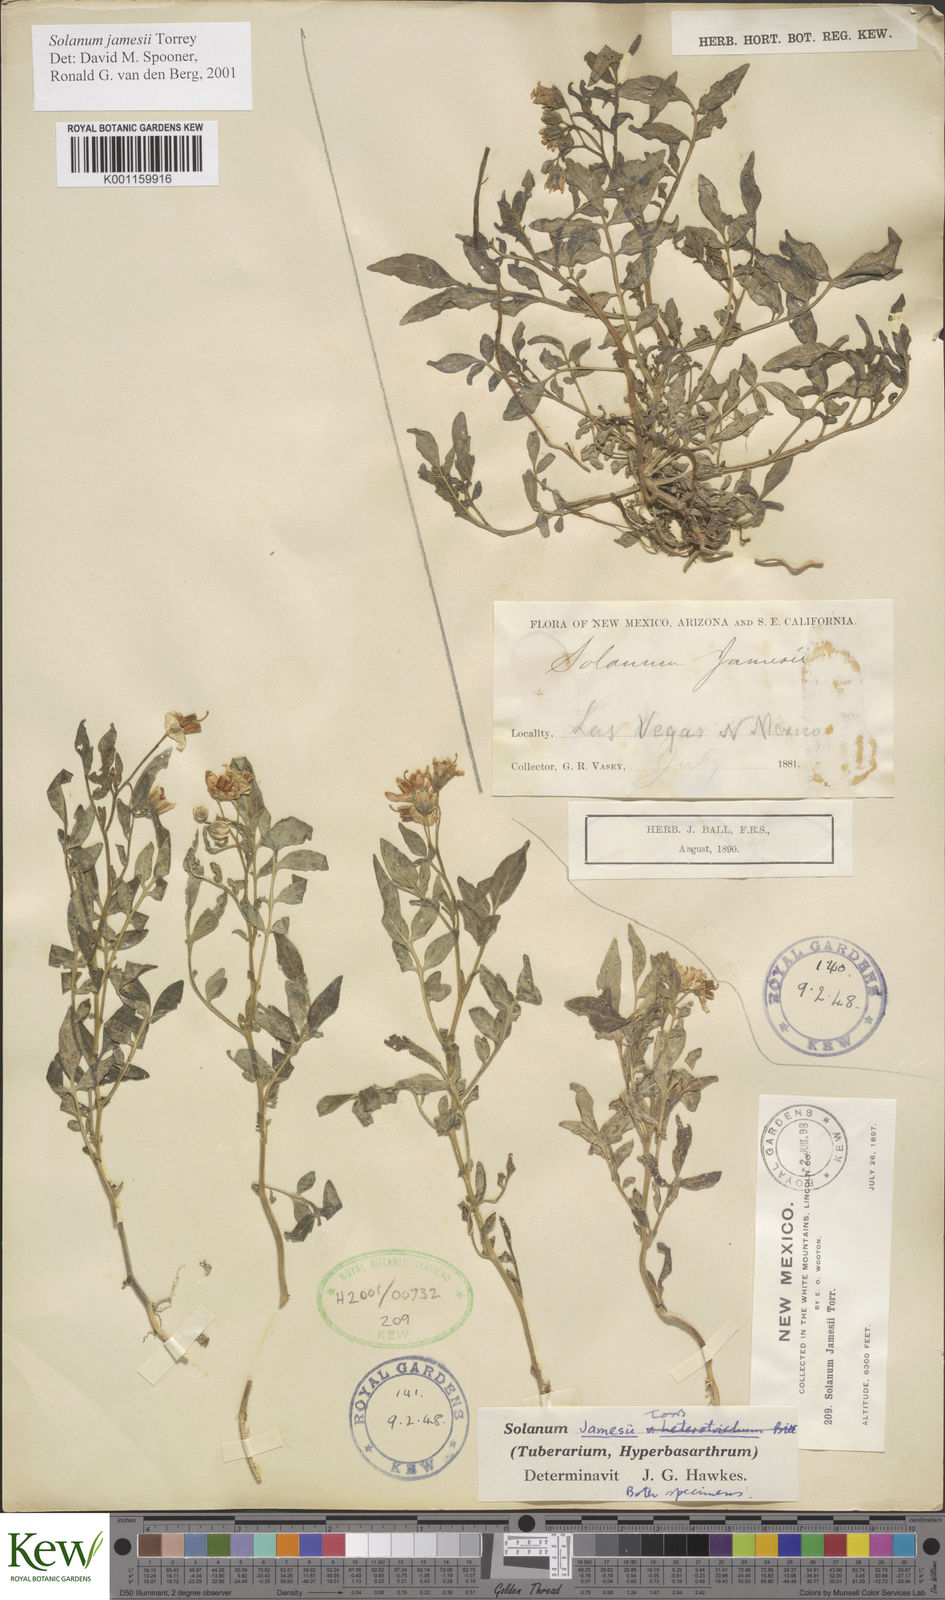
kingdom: Plantae
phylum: Tracheophyta
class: Magnoliopsida
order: Solanales
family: Solanaceae
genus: Solanum
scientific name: Solanum jamesii
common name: Wild potato
